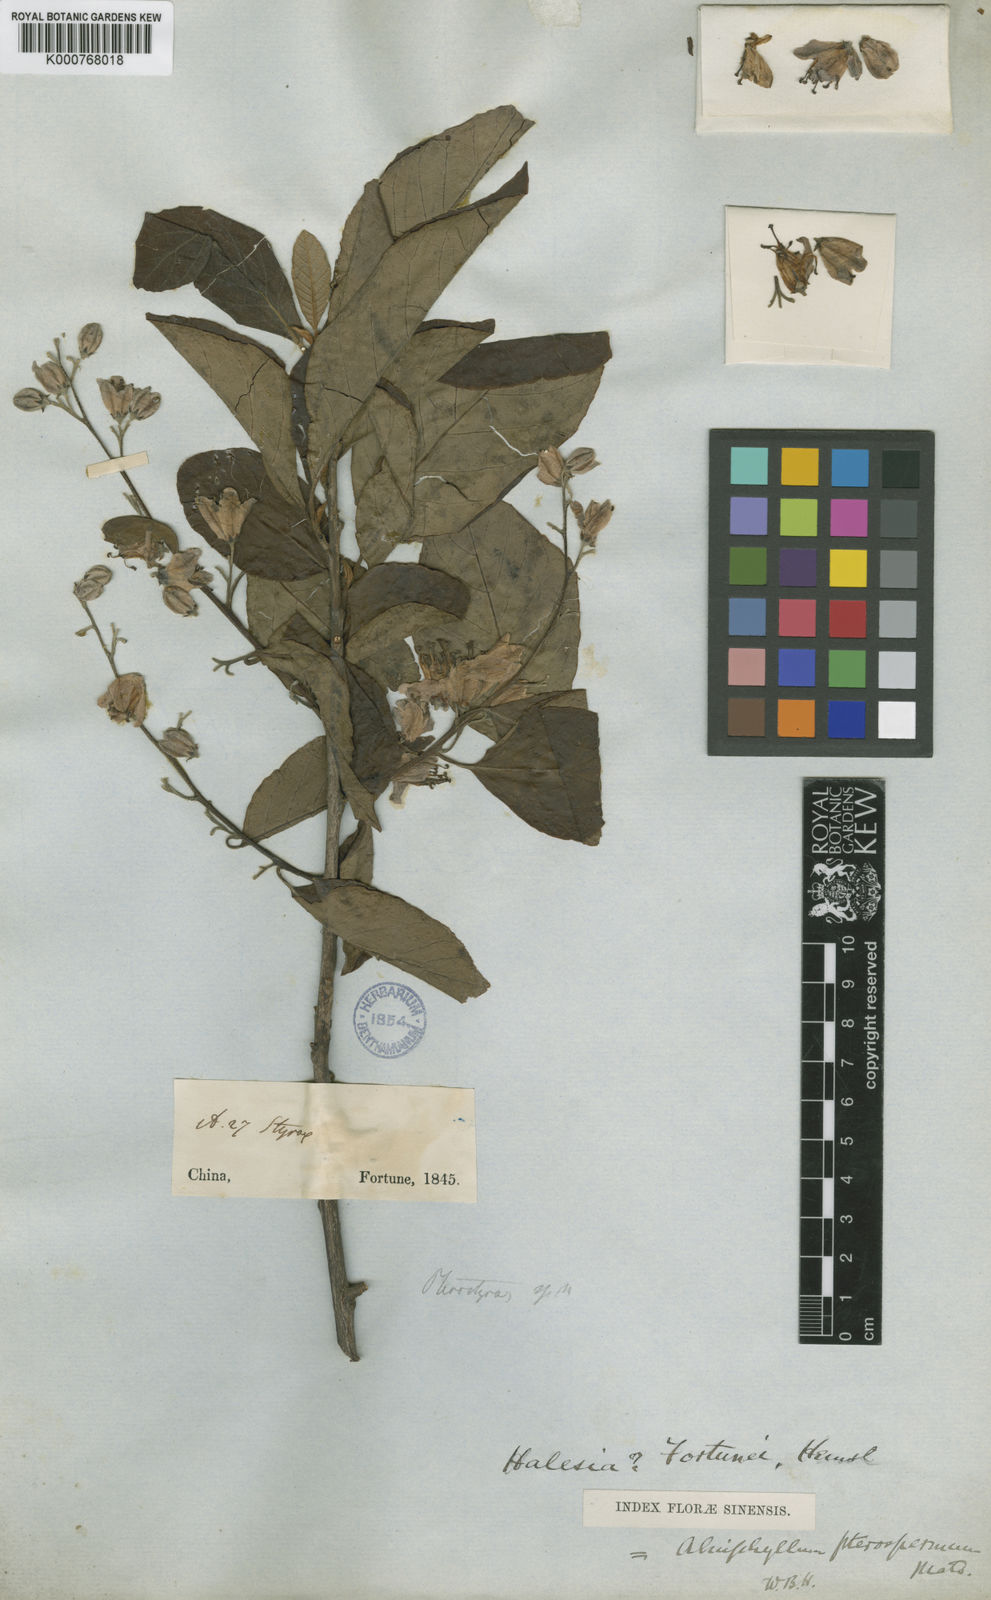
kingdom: Plantae
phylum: Tracheophyta
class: Magnoliopsida
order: Ericales
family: Styracaceae
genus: Alniphyllum
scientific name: Alniphyllum fortunei
